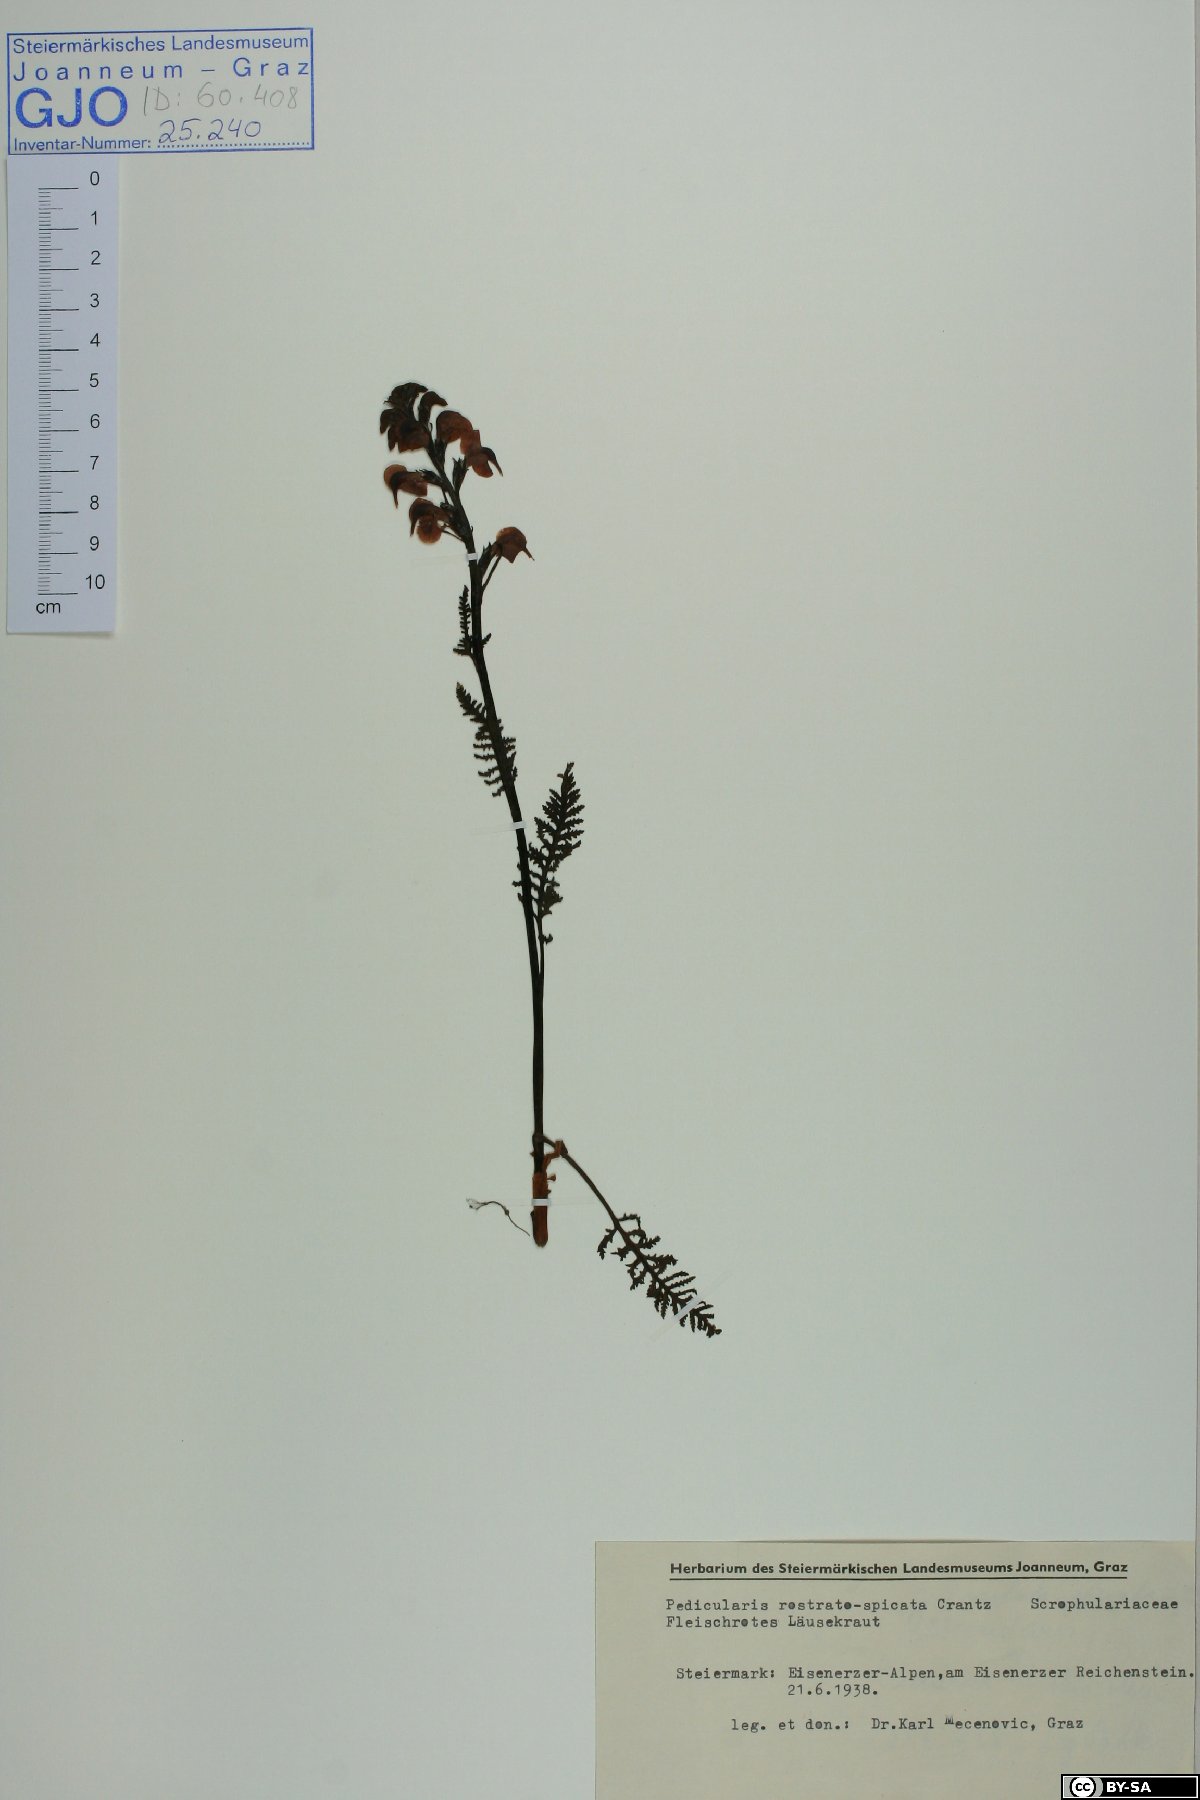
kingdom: Plantae
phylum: Tracheophyta
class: Magnoliopsida
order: Lamiales
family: Orobanchaceae
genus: Pedicularis
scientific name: Pedicularis rostratospicata
